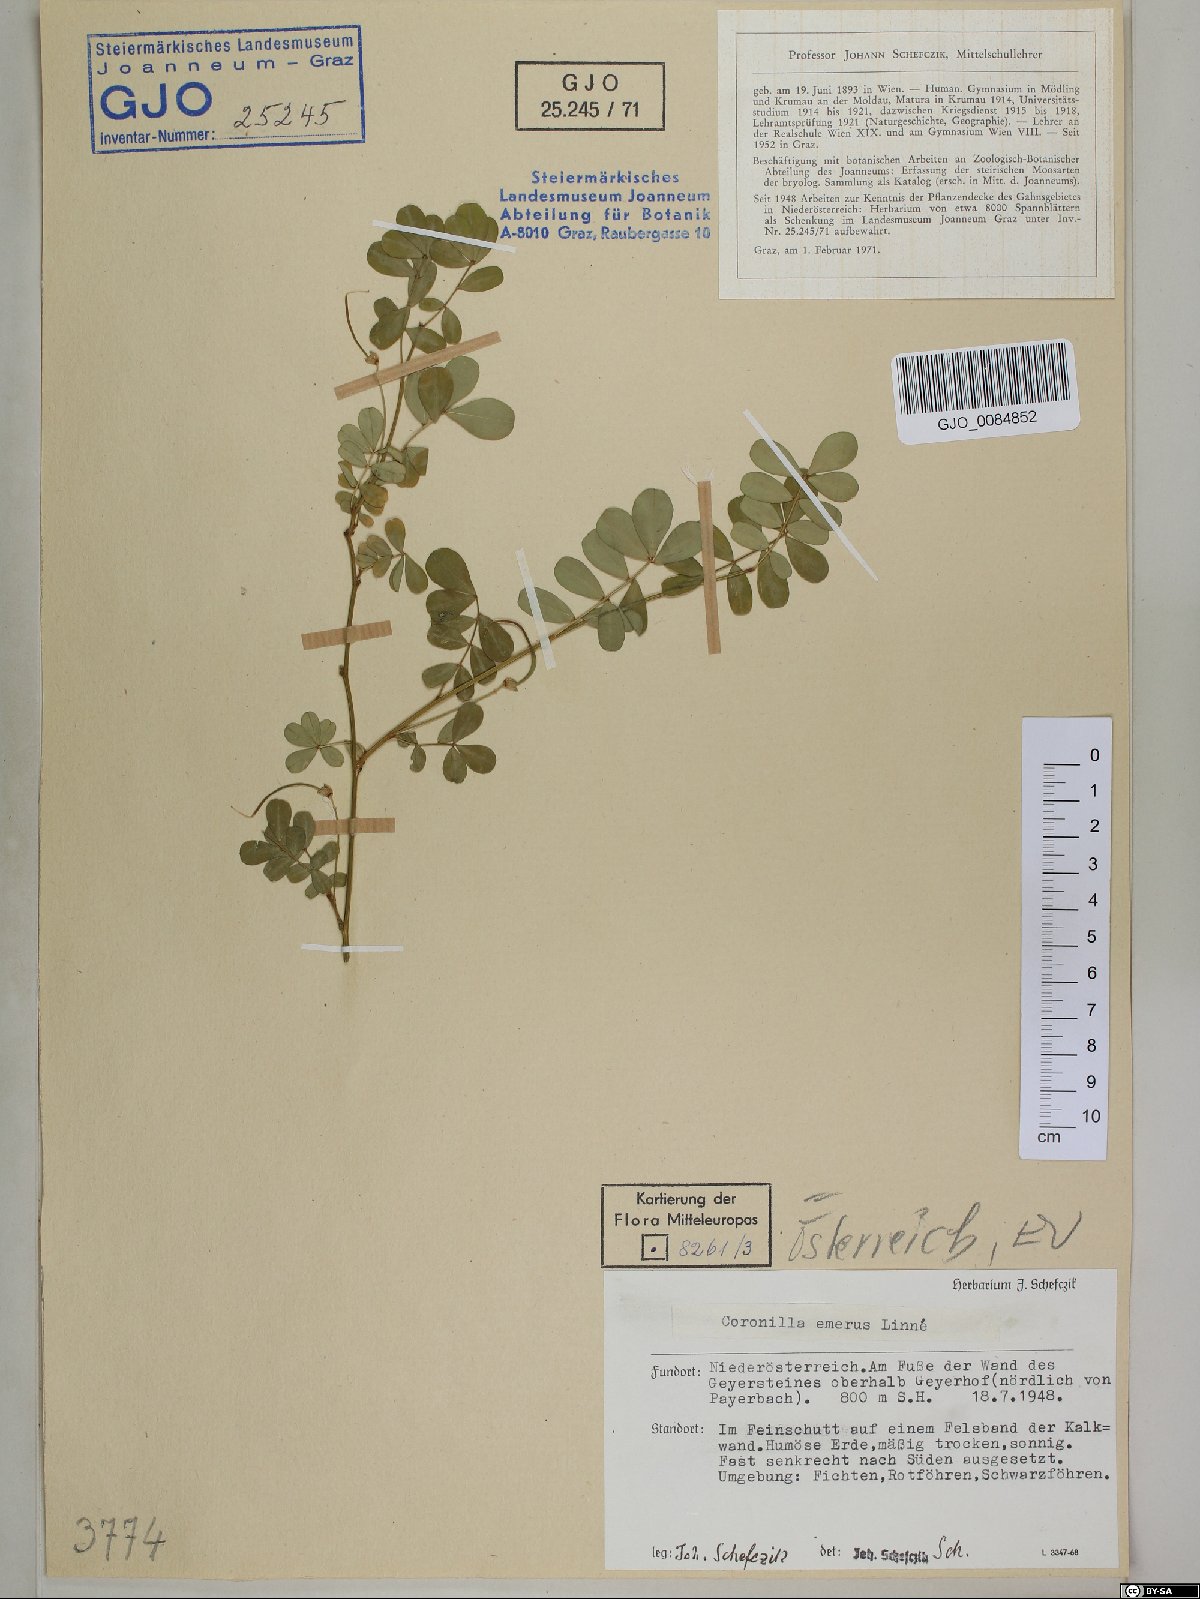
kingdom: Plantae
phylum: Tracheophyta
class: Magnoliopsida
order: Fabales
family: Fabaceae
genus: Hippocrepis
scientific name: Hippocrepis emerus
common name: Scorpion senna
